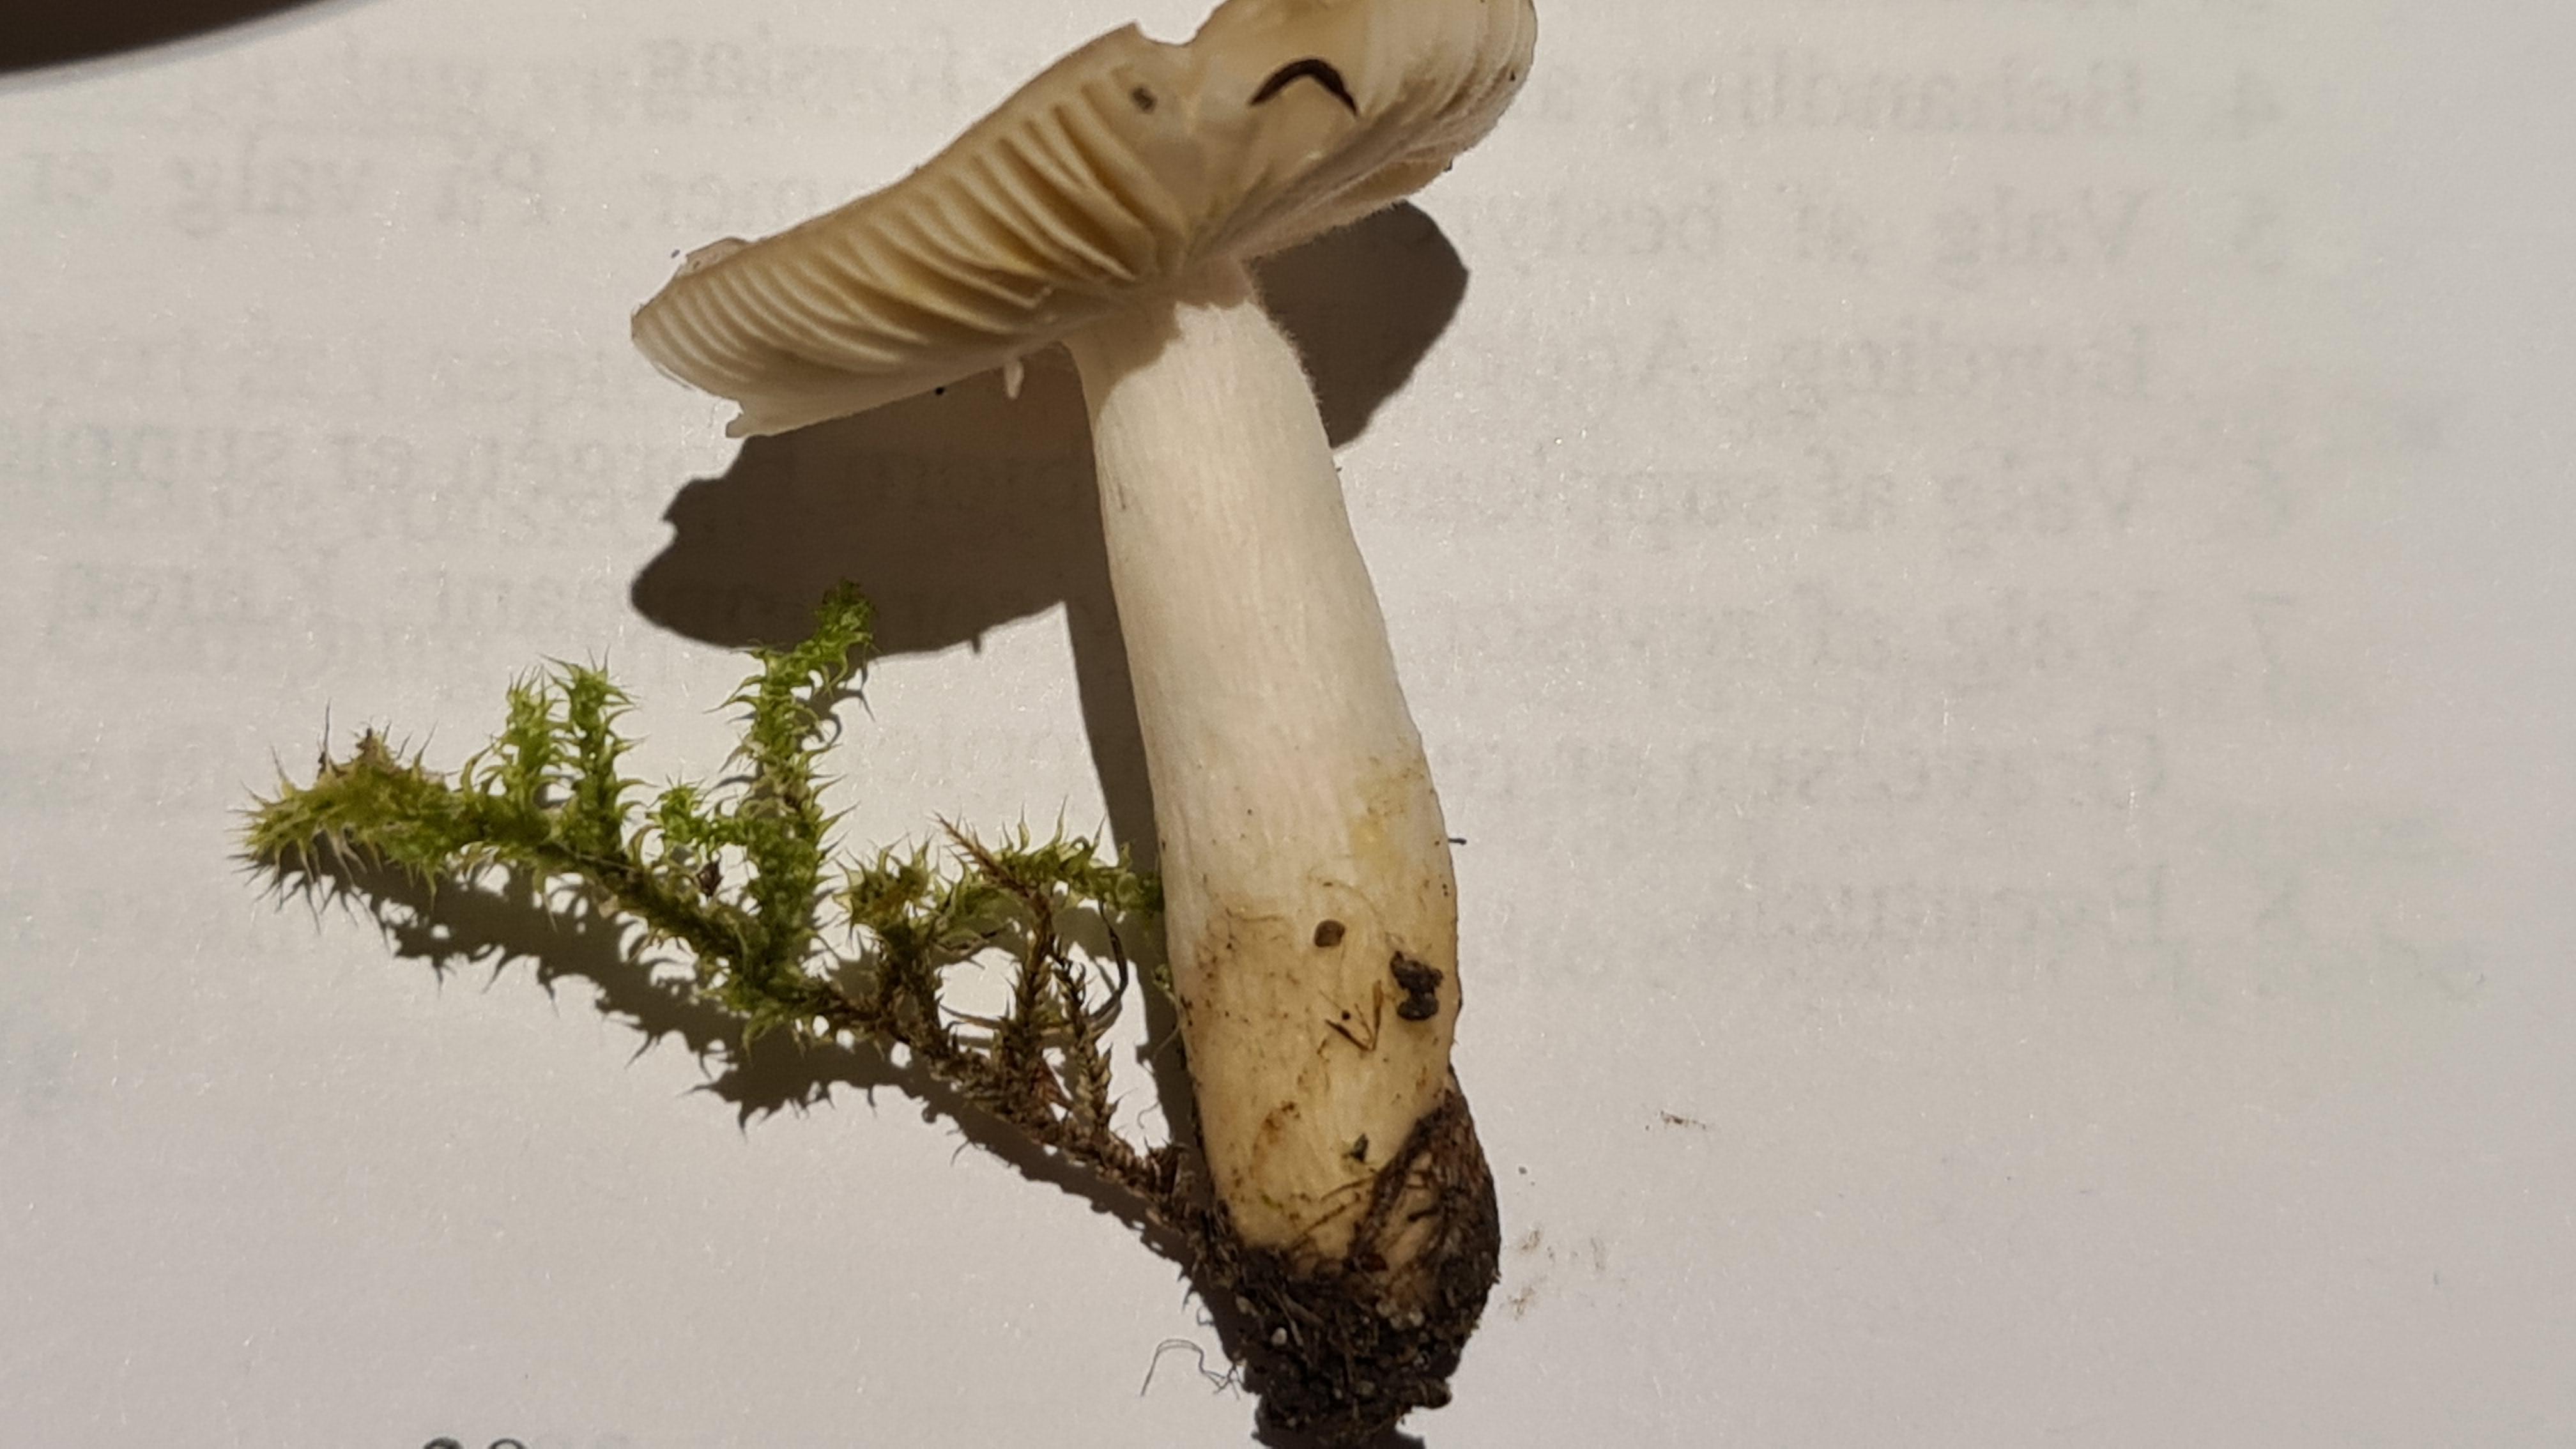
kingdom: Fungi
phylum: Basidiomycota
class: Agaricomycetes
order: Russulales
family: Russulaceae
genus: Russula
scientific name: Russula versicolor
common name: foranderlig skørhat
